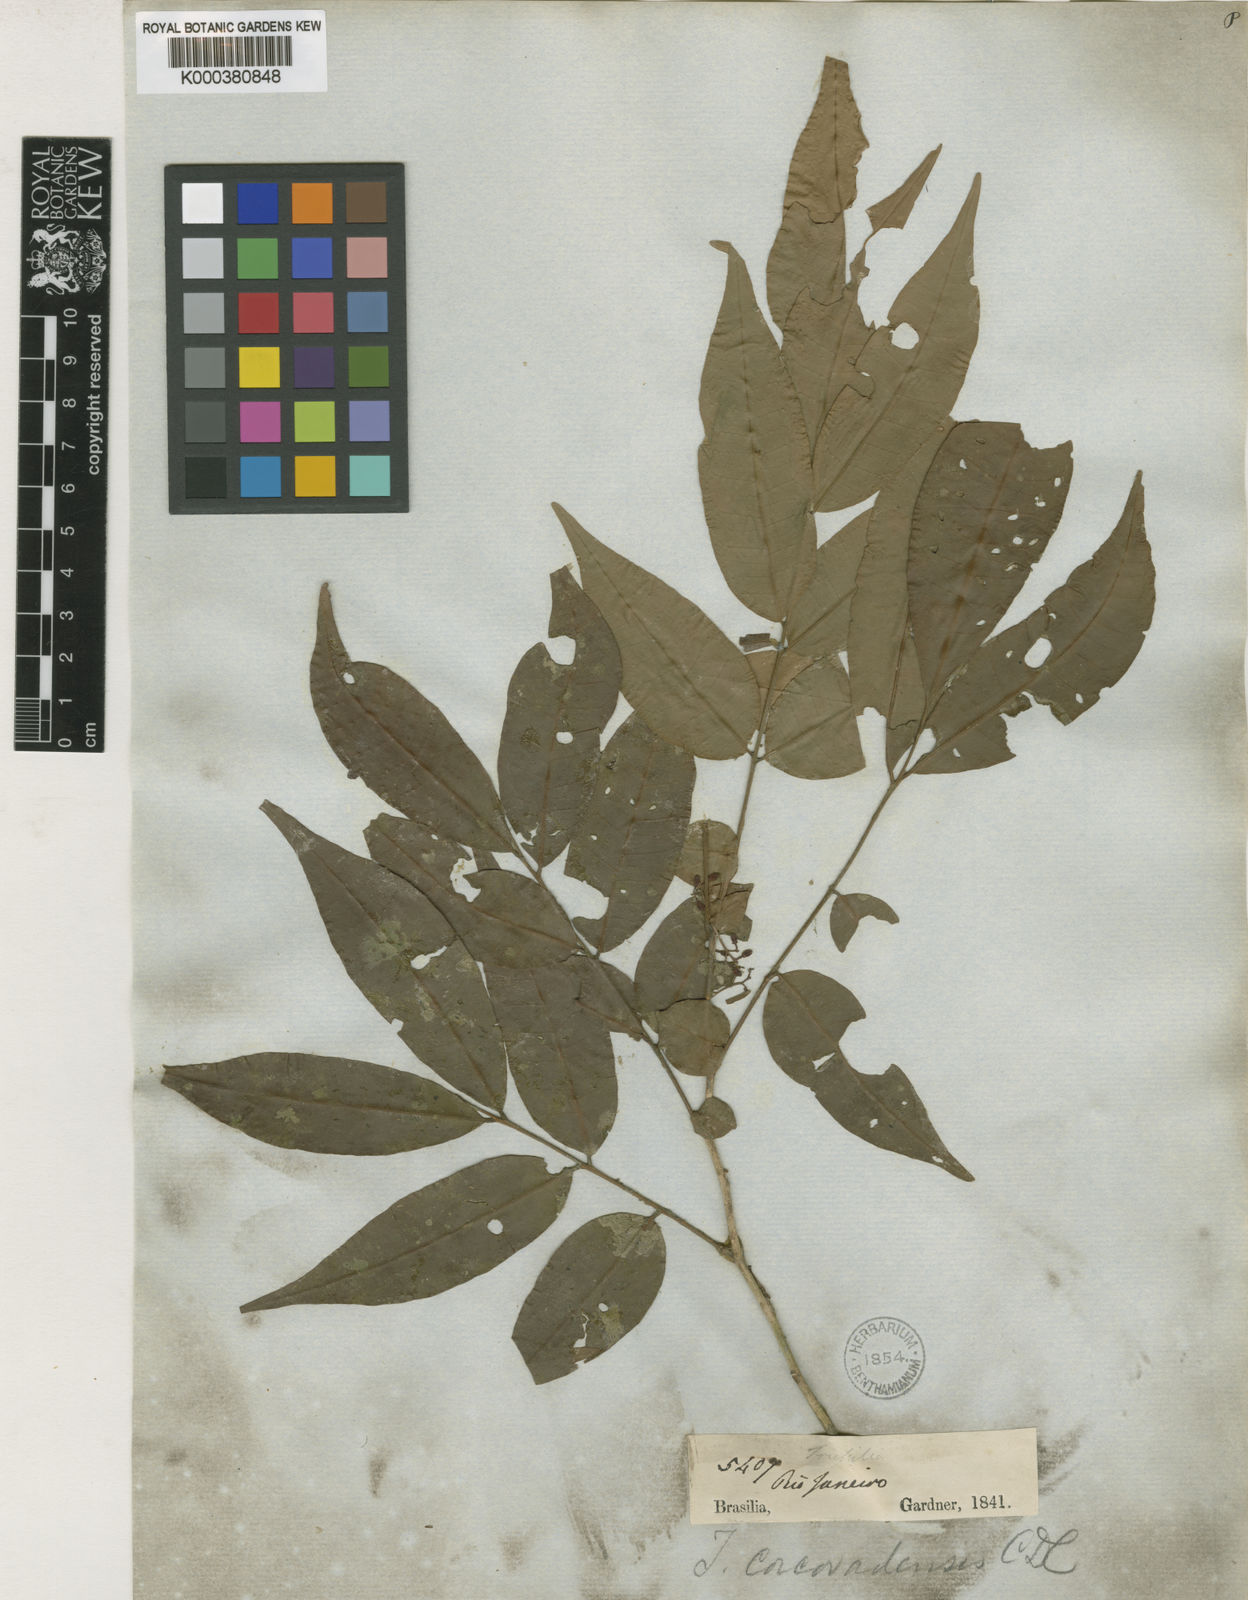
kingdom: Plantae
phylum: Tracheophyta
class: Magnoliopsida
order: Sapindales
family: Meliaceae
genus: Trichilia
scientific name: Trichilia pseudostipularis
